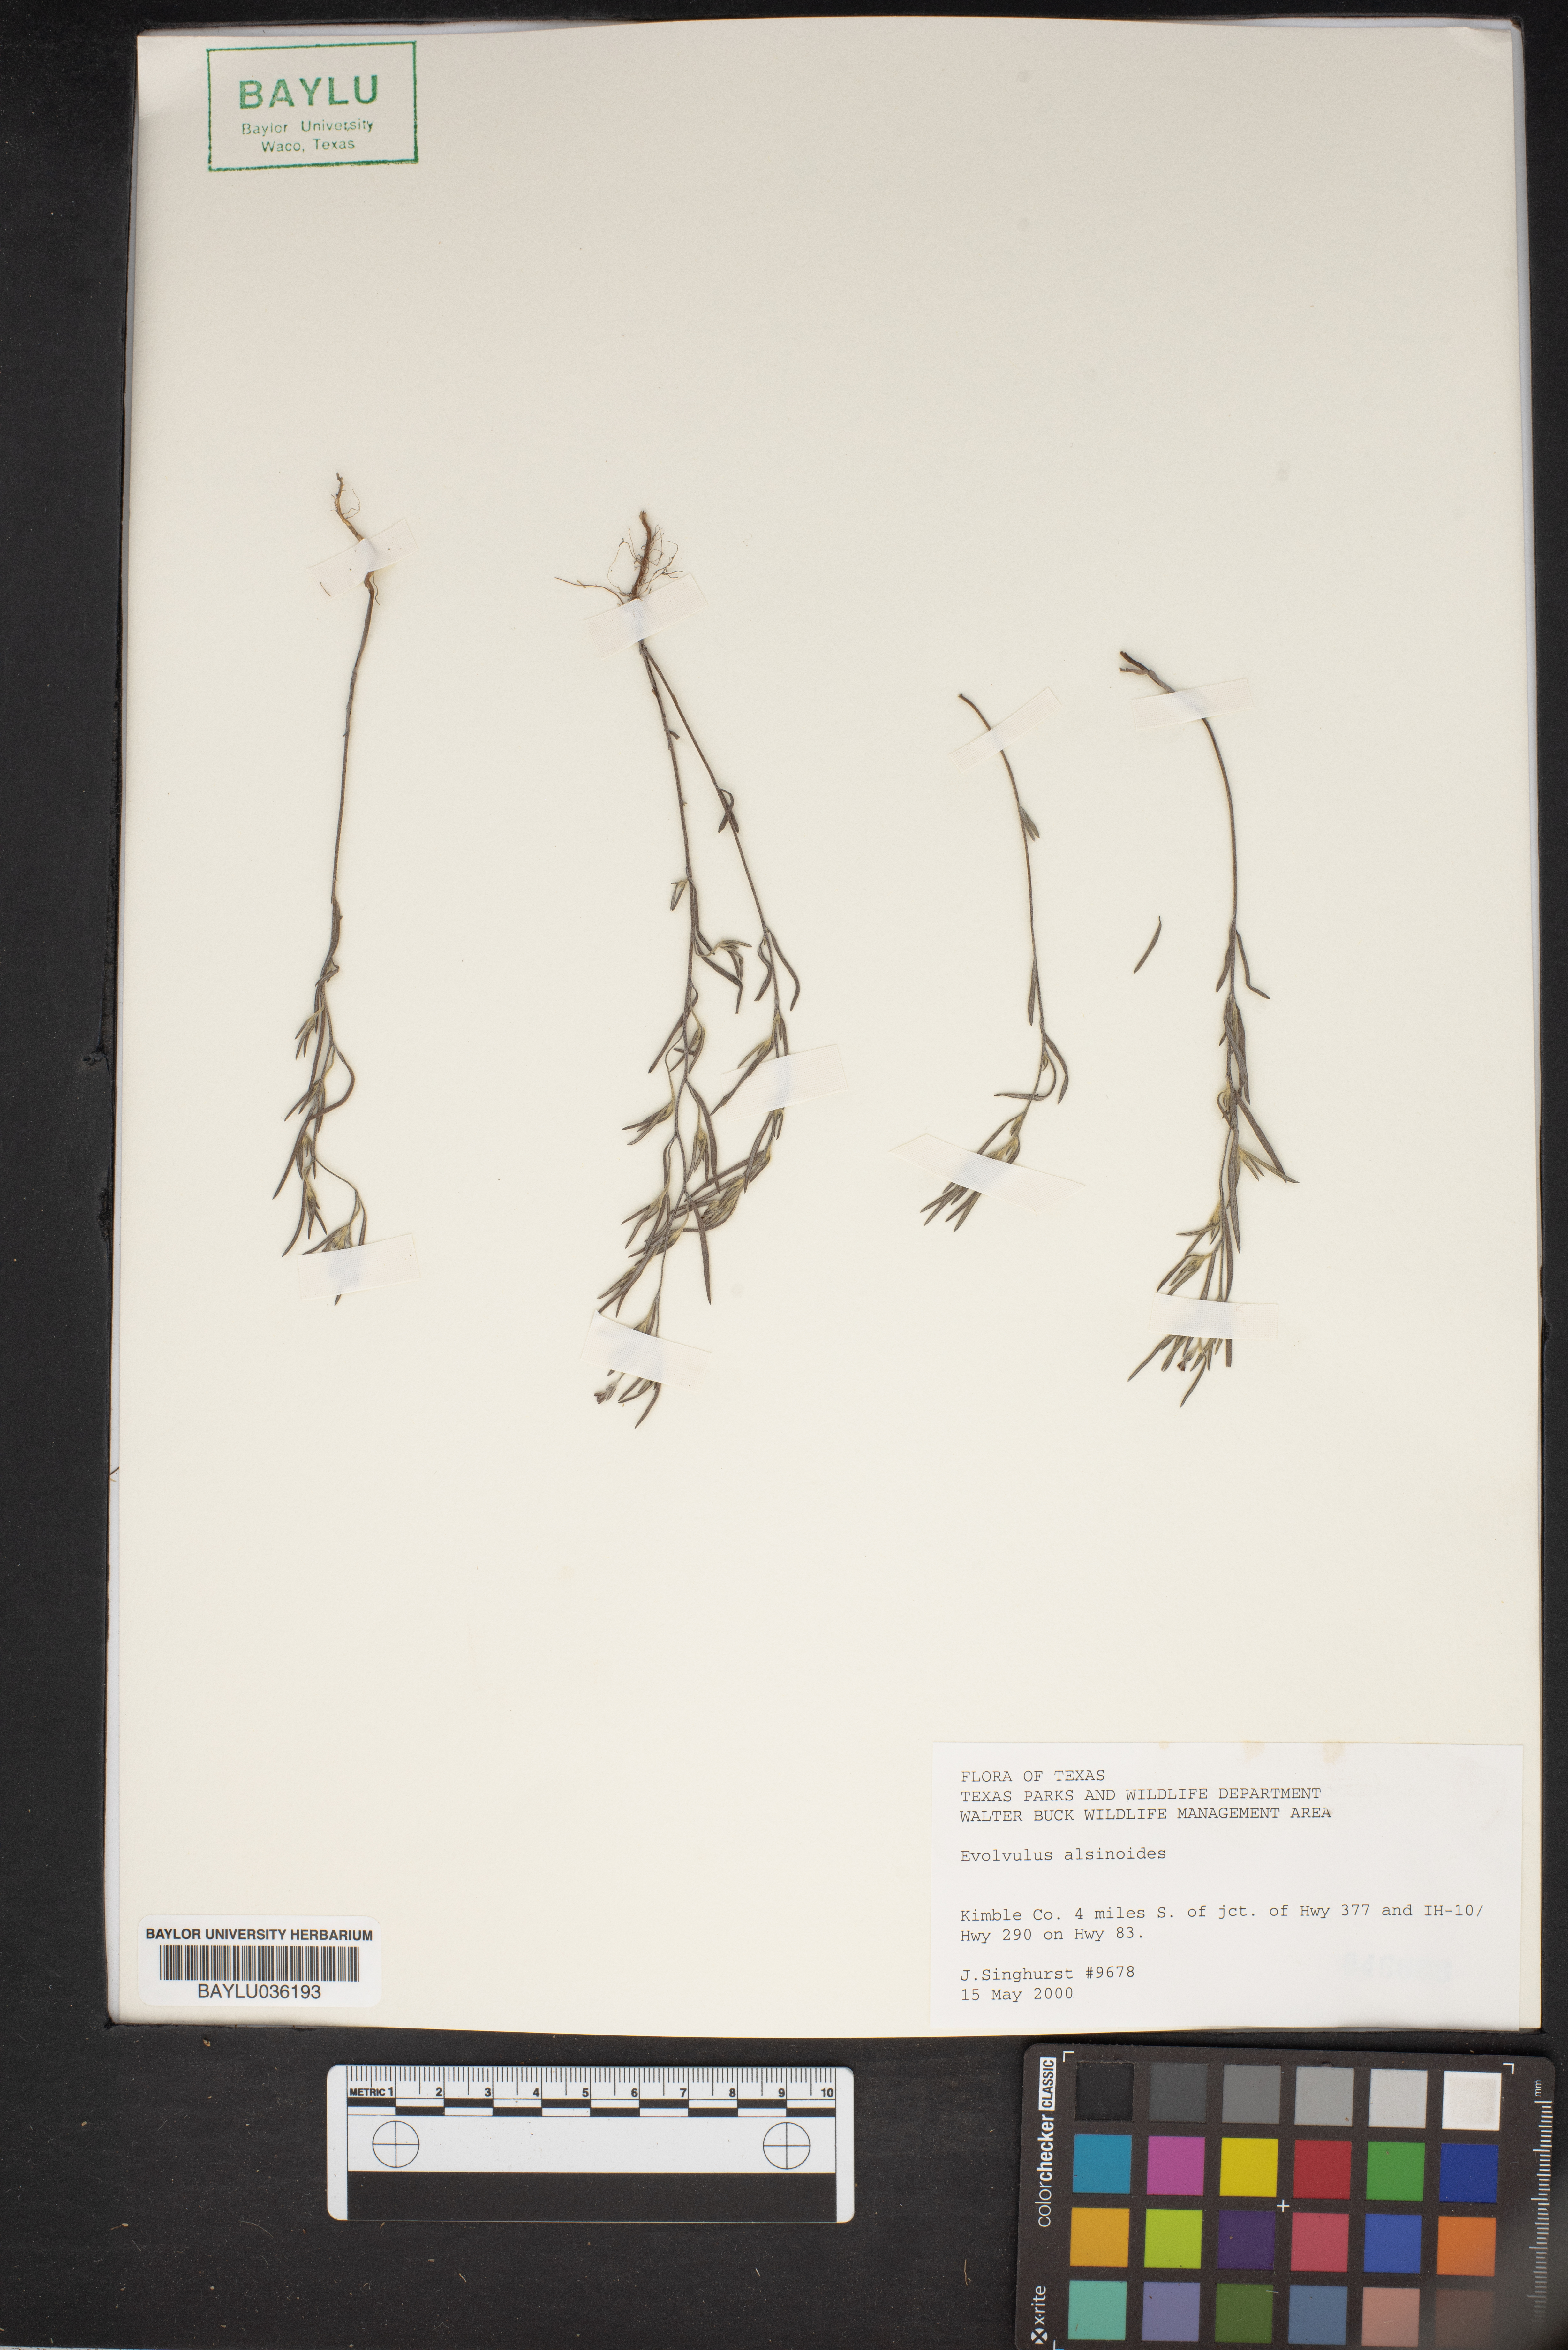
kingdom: Plantae
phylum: Tracheophyta
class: Magnoliopsida
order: Solanales
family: Convolvulaceae
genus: Evolvulus
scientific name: Evolvulus alsinoides
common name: Slender dwarf morning-glory
